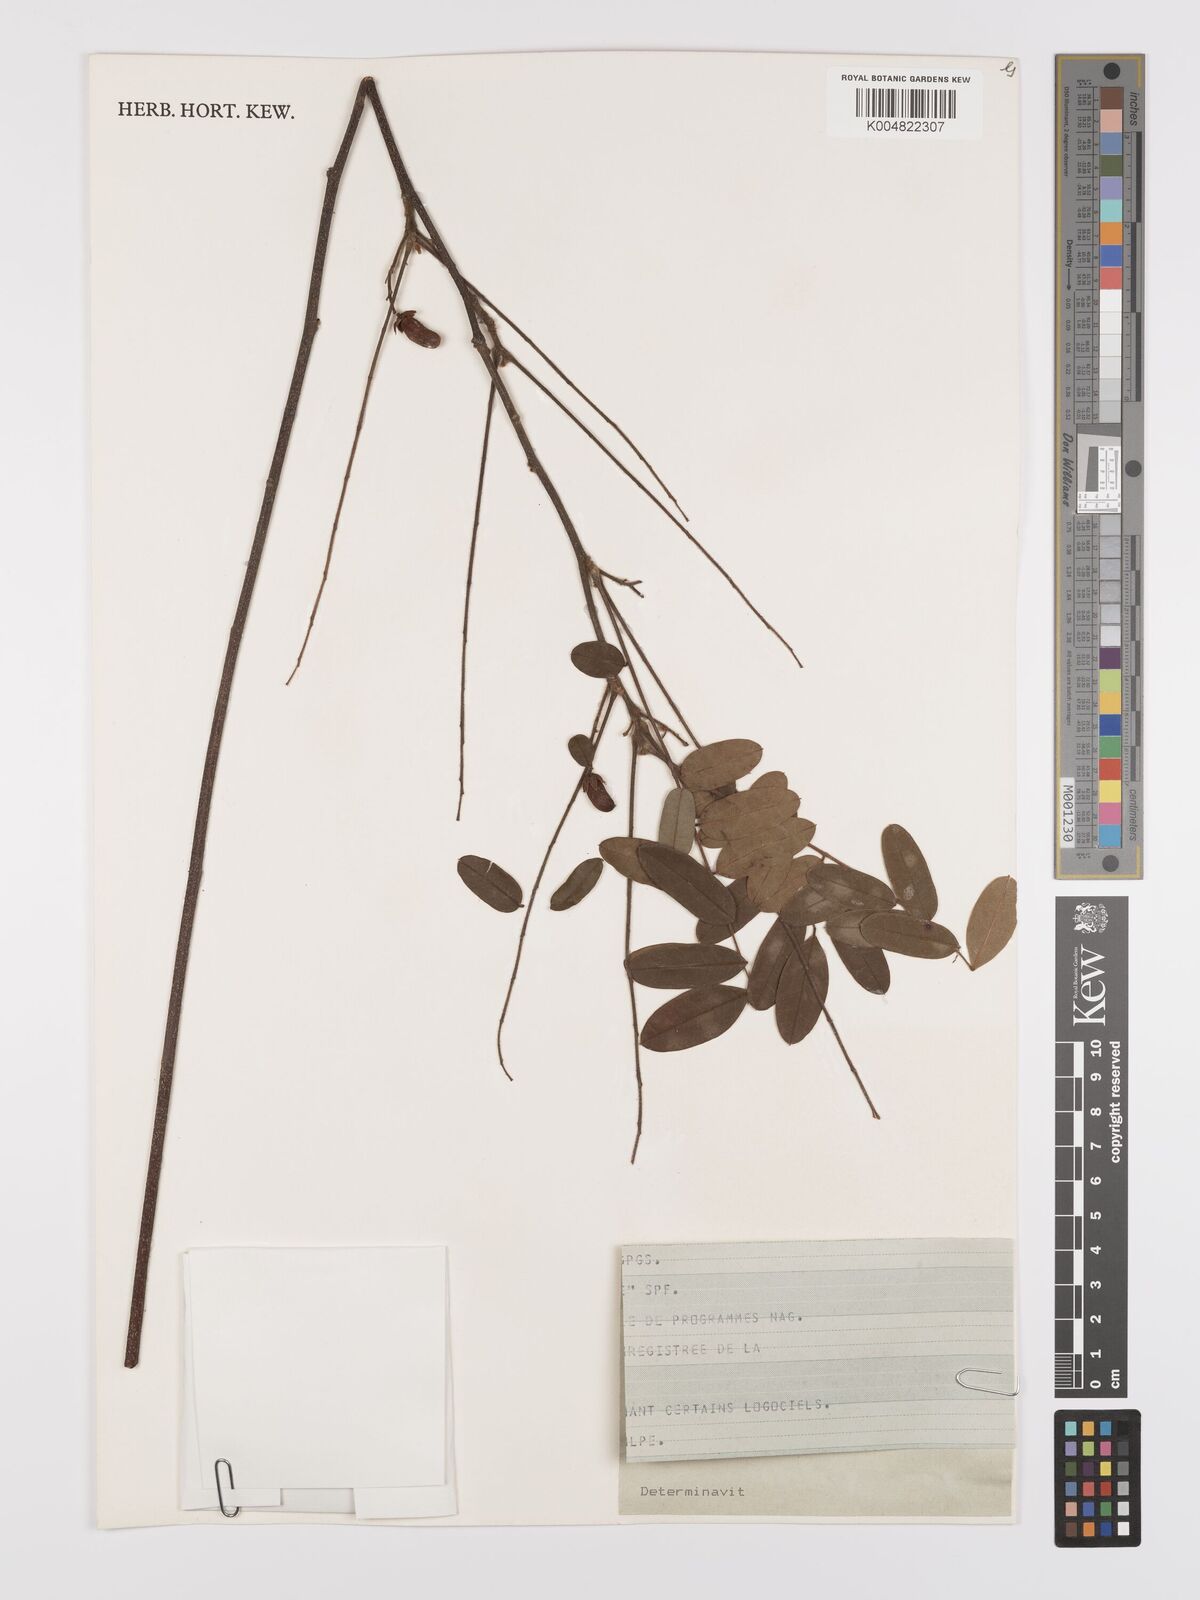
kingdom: Plantae
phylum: Tracheophyta
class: Magnoliopsida
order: Oxalidales
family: Connaraceae
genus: Rourea
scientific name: Rourea orientalis
